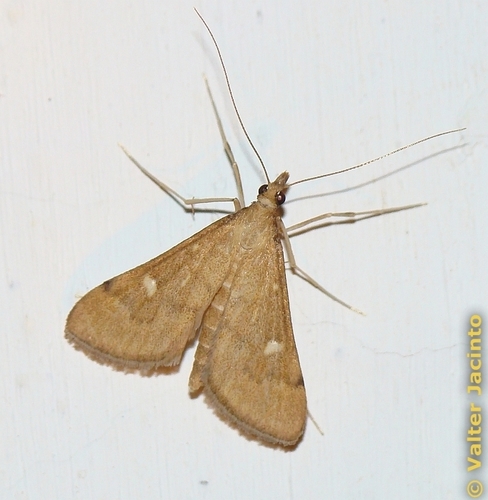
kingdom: Animalia
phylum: Arthropoda
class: Insecta
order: Lepidoptera
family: Crambidae
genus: Stenia
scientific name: Stenia Dolicharthria punctalis
